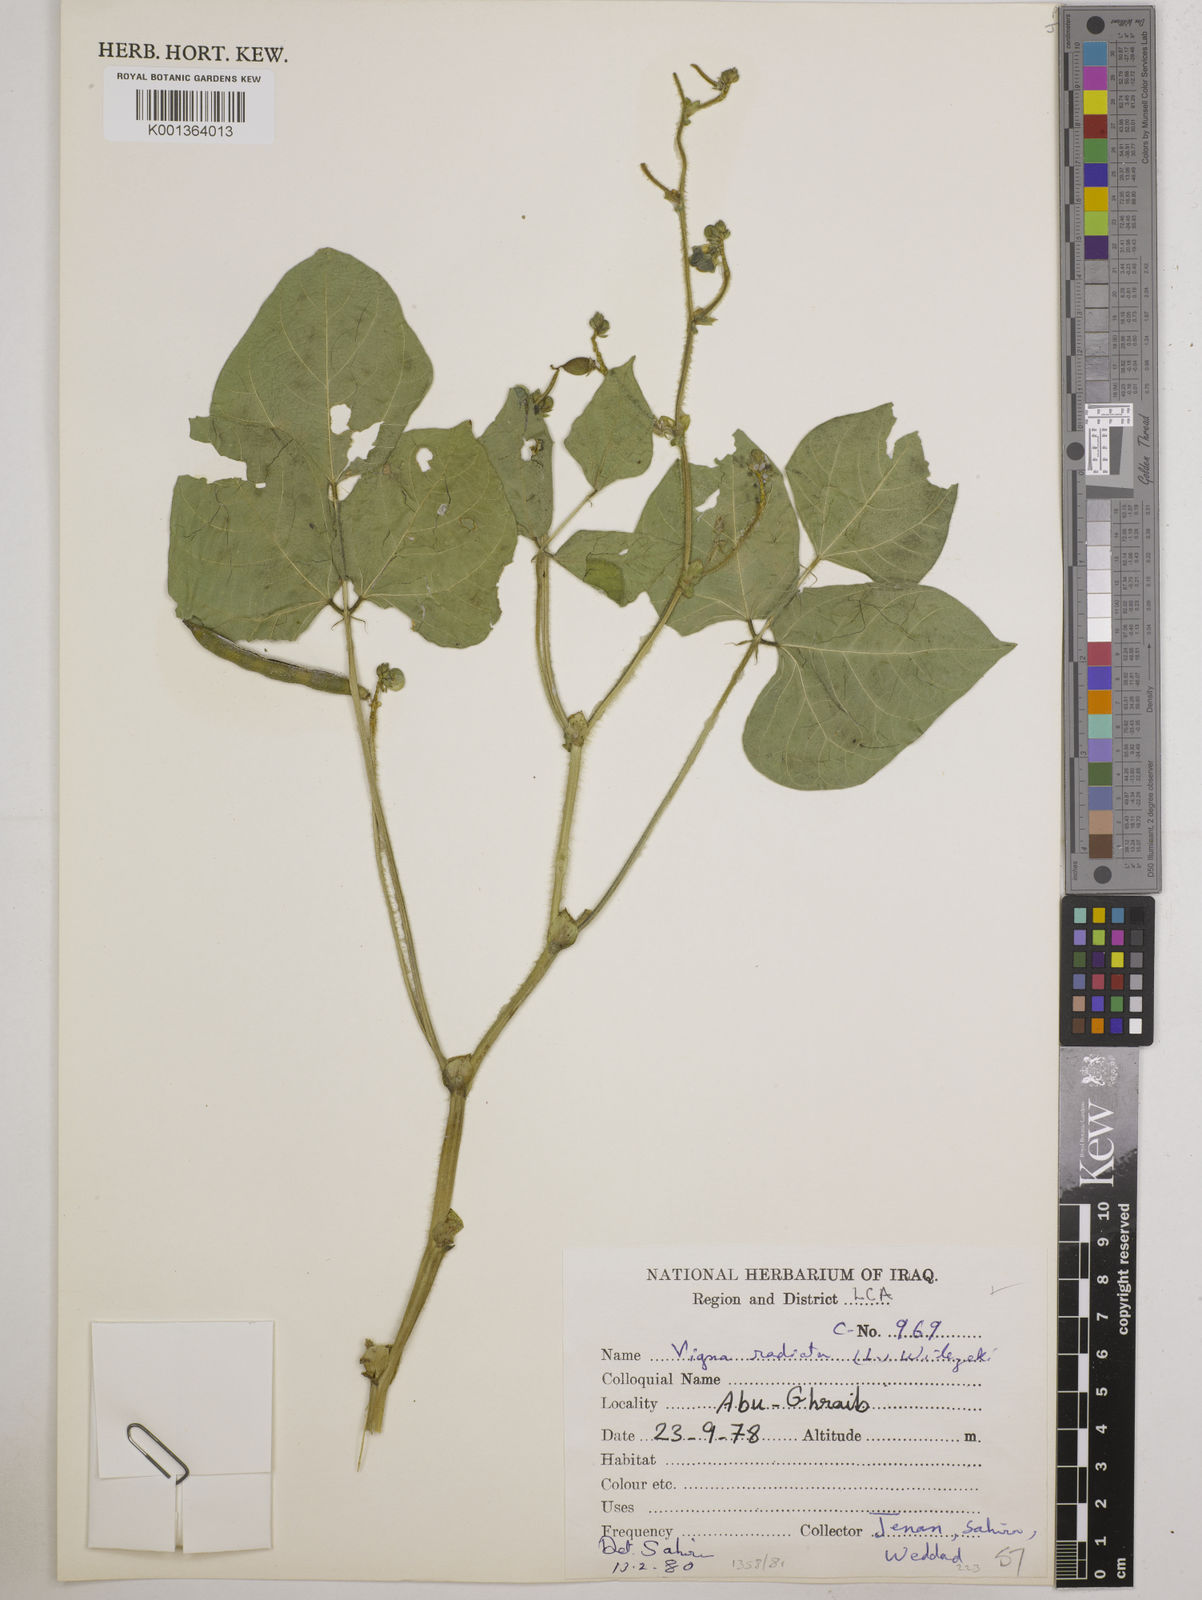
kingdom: Plantae
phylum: Tracheophyta
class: Magnoliopsida
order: Fabales
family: Fabaceae
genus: Vigna
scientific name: Vigna radiata
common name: Mung-bean
